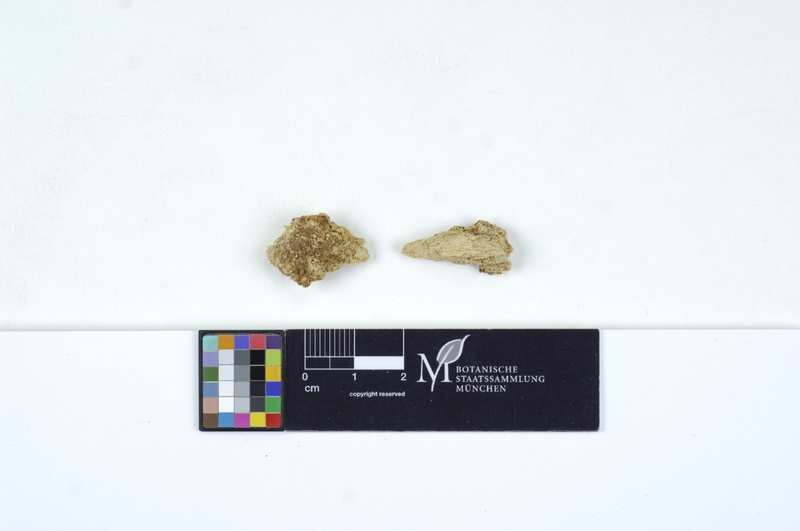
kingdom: Fungi
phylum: Basidiomycota
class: Agaricomycetes
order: Cantharellales
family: Tulasnellaceae
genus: Tulasnella
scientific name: Tulasnella subglobospora
